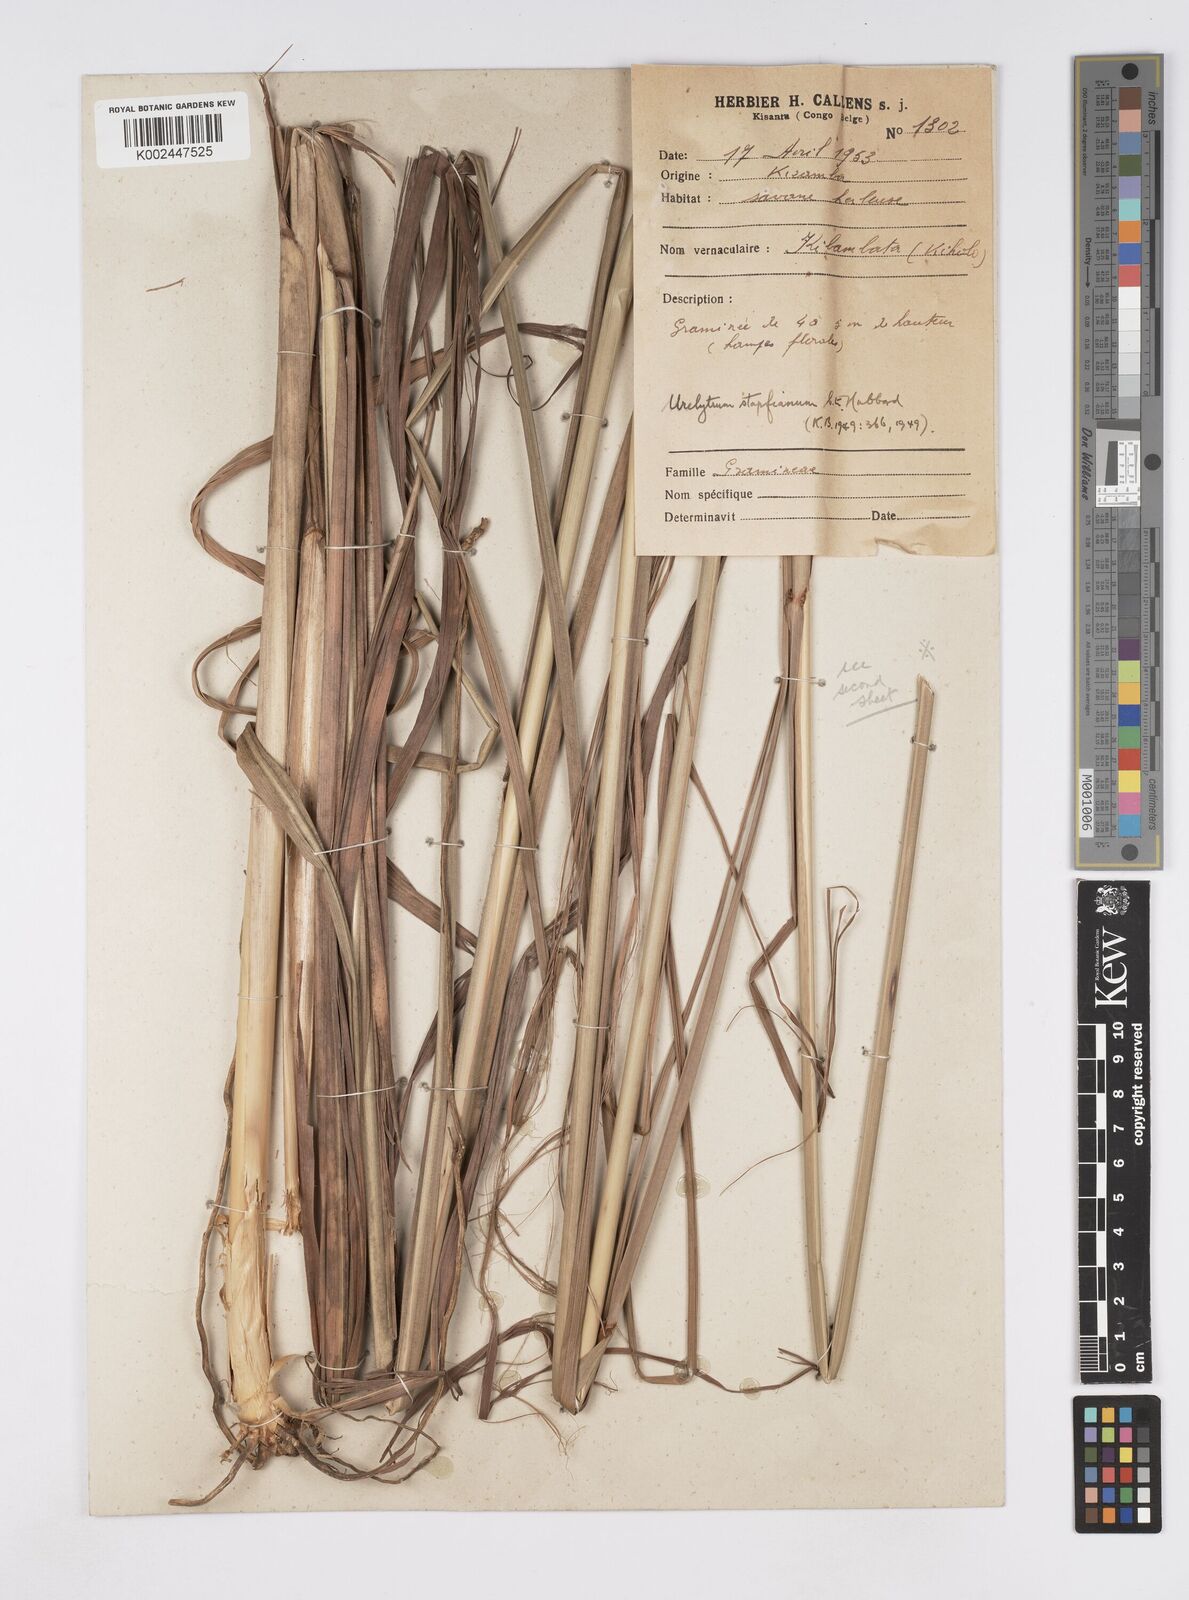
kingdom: Plantae
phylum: Tracheophyta
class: Liliopsida
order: Poales
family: Poaceae
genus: Urelytrum
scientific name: Urelytrum digitatum
